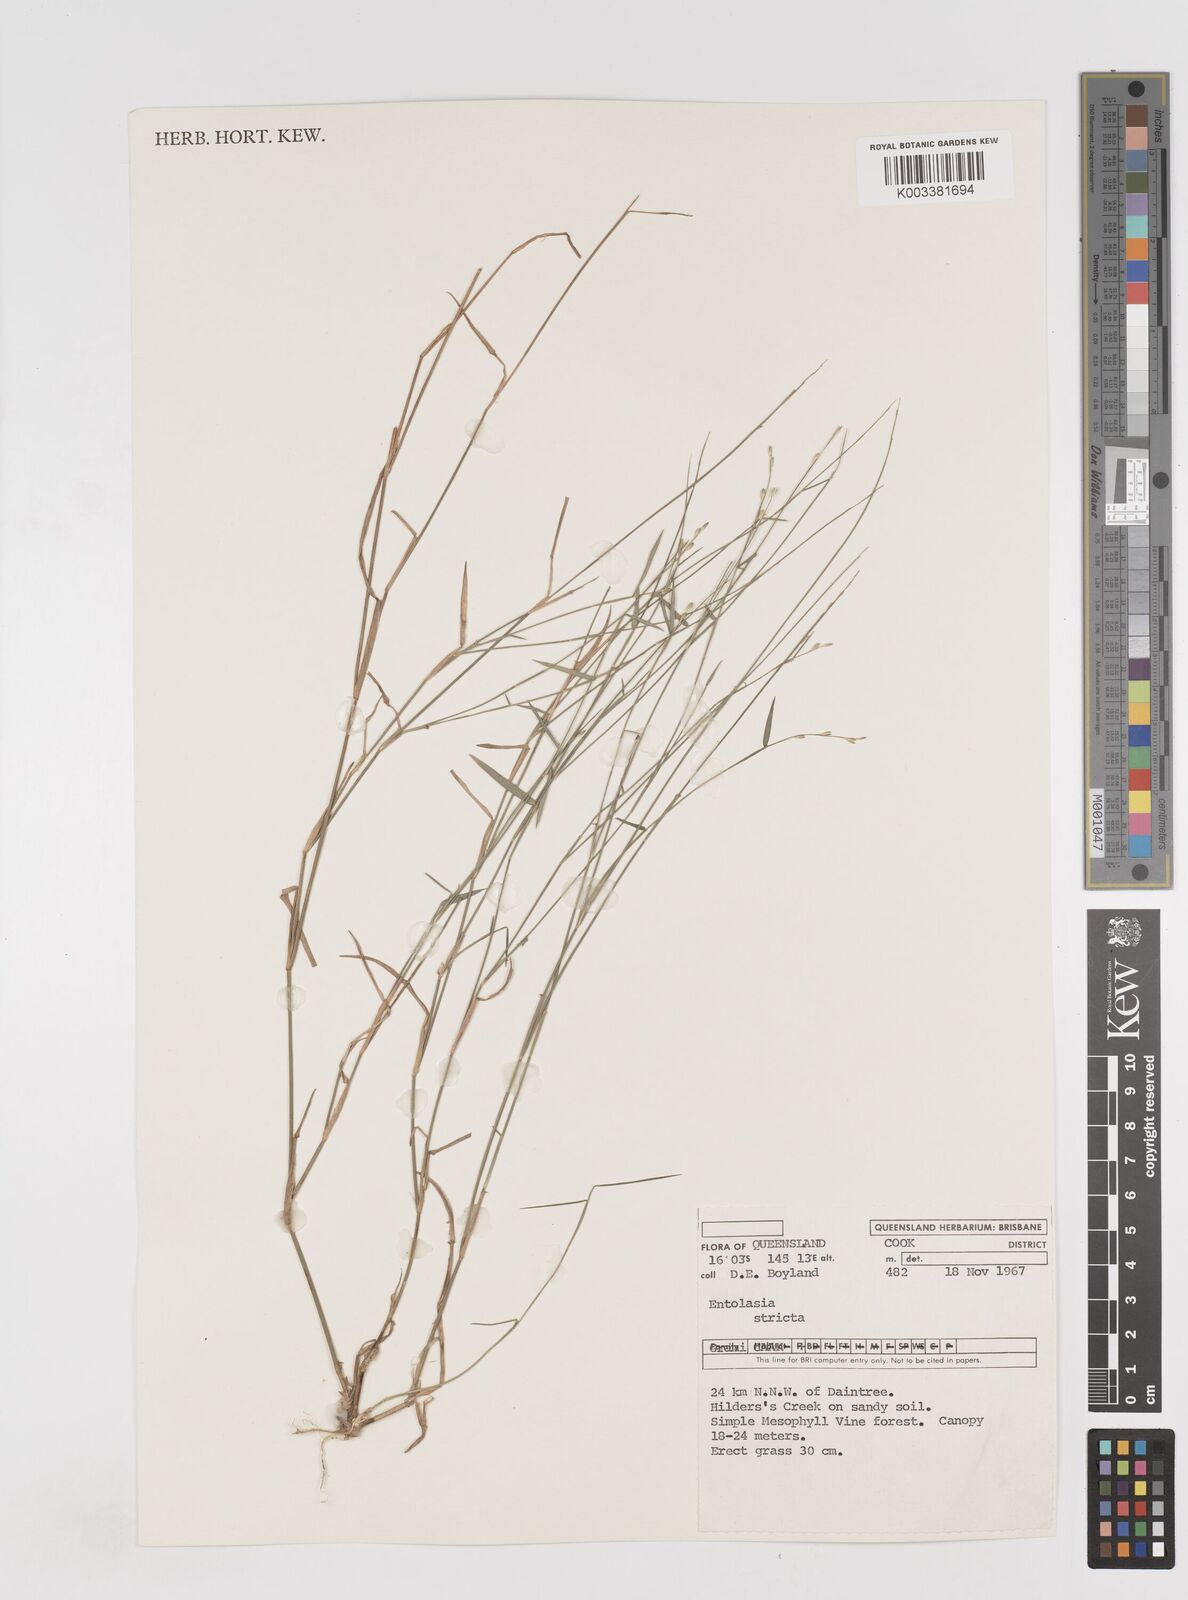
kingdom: Plantae
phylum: Tracheophyta
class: Liliopsida
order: Poales
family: Poaceae
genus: Entolasia
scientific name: Entolasia stricta
